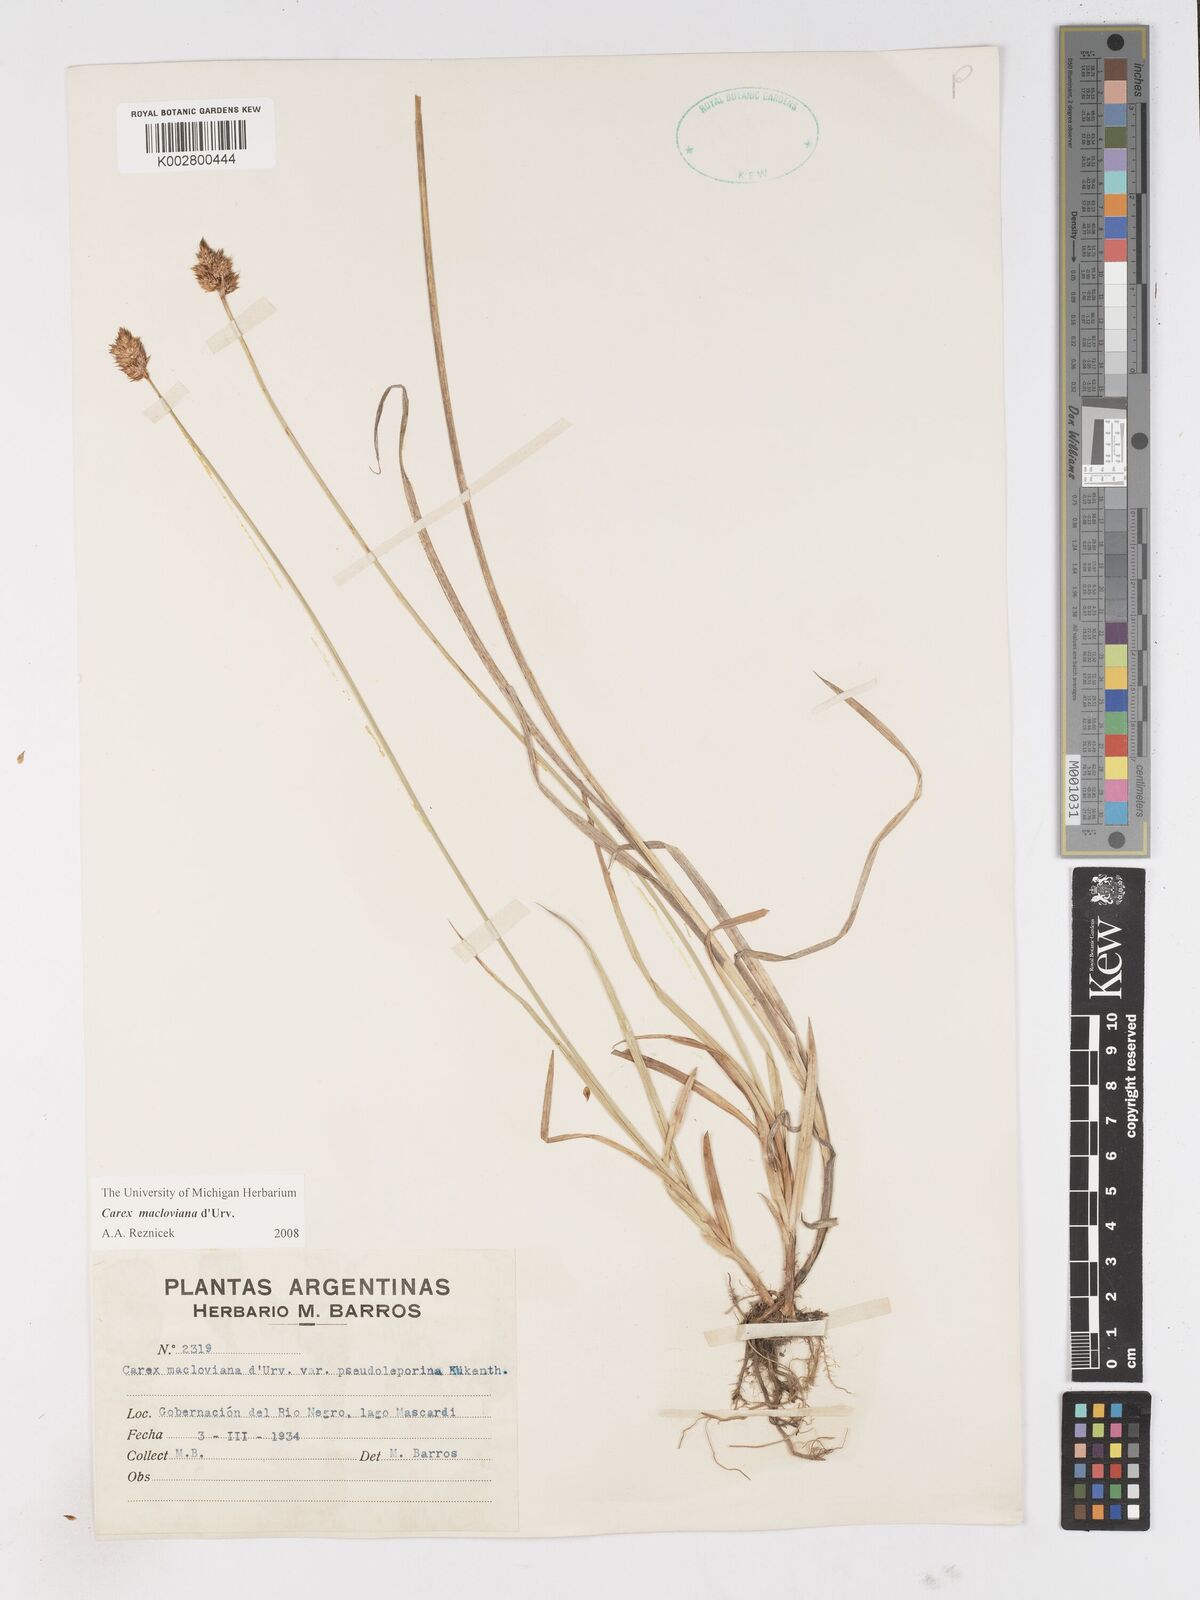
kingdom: Plantae
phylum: Tracheophyta
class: Liliopsida
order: Poales
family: Cyperaceae
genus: Carex
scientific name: Carex subfusca
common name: Brown sedge
